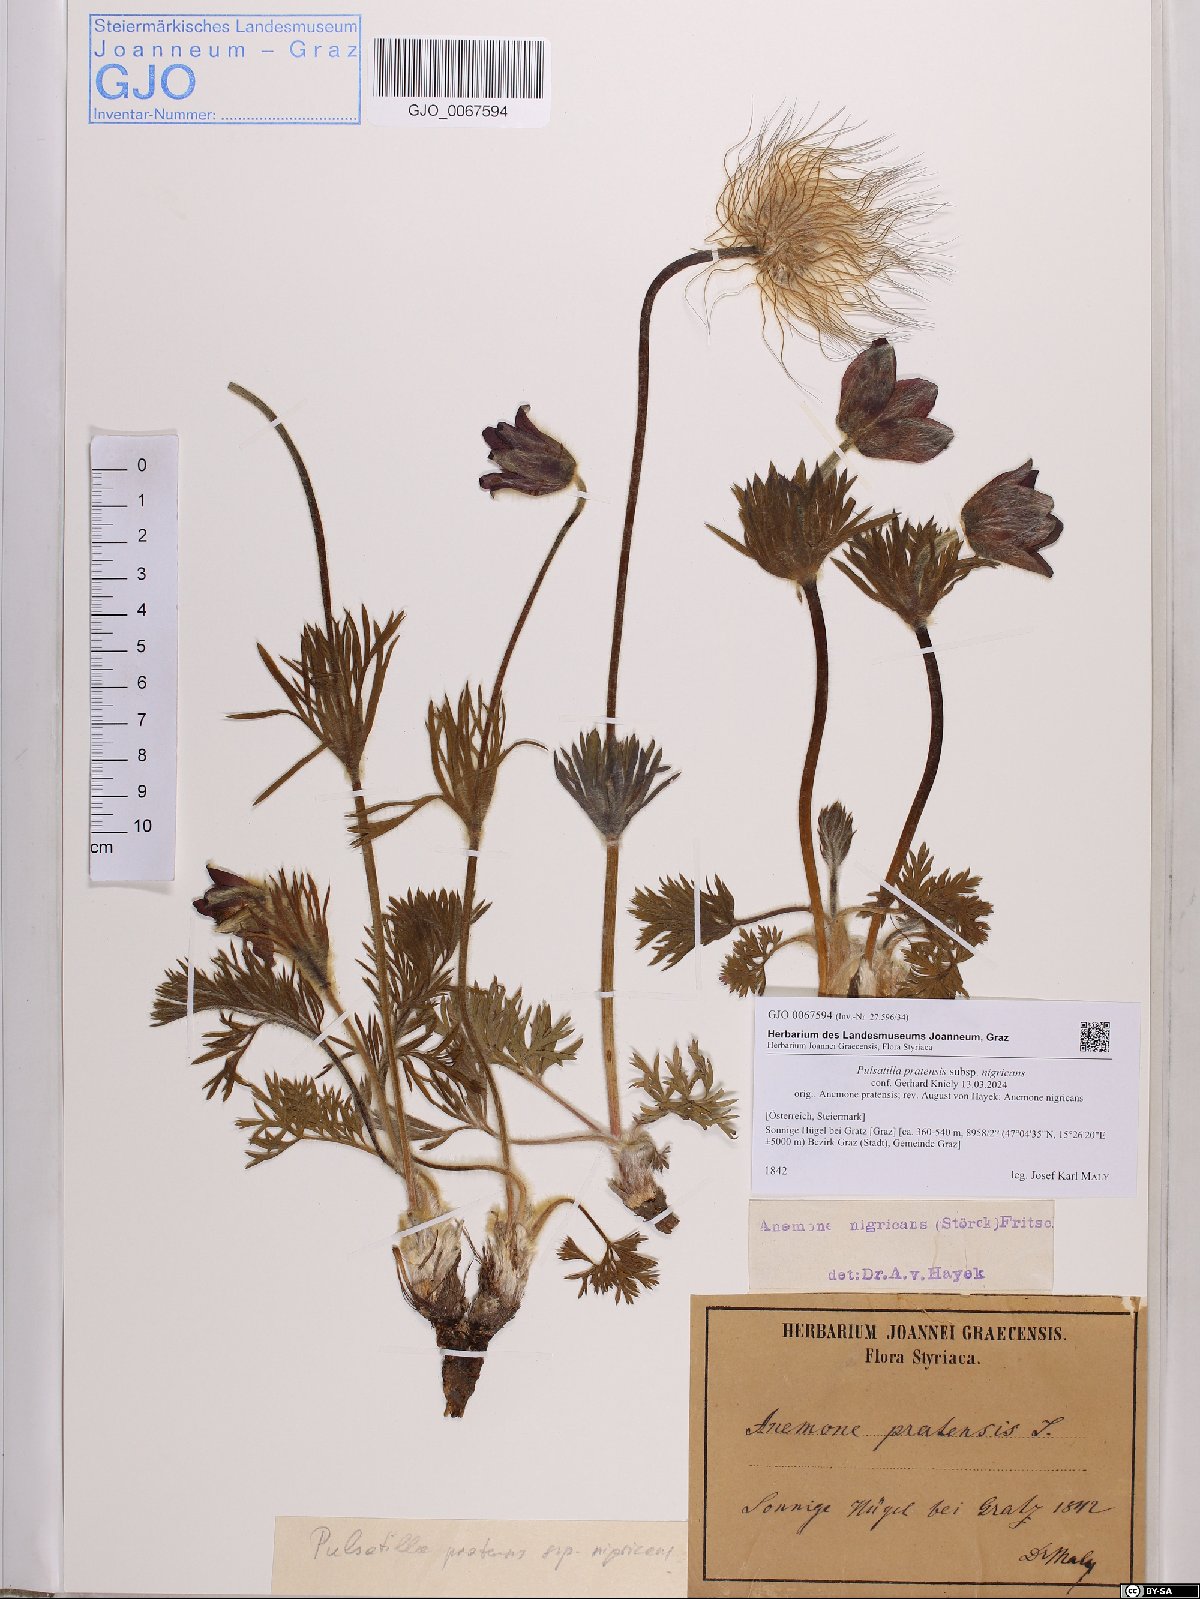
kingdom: Plantae
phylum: Tracheophyta
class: Magnoliopsida
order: Ranunculales
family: Ranunculaceae
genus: Pulsatilla
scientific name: Pulsatilla pratensis
